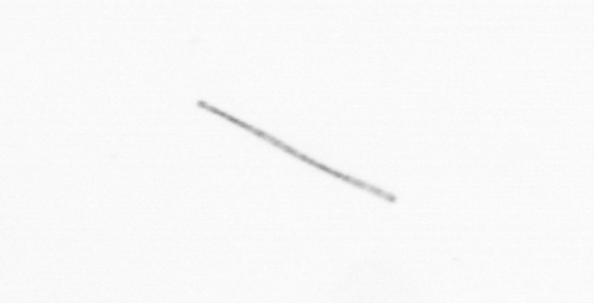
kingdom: Chromista
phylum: Ochrophyta
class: Bacillariophyceae
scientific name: Bacillariophyceae
